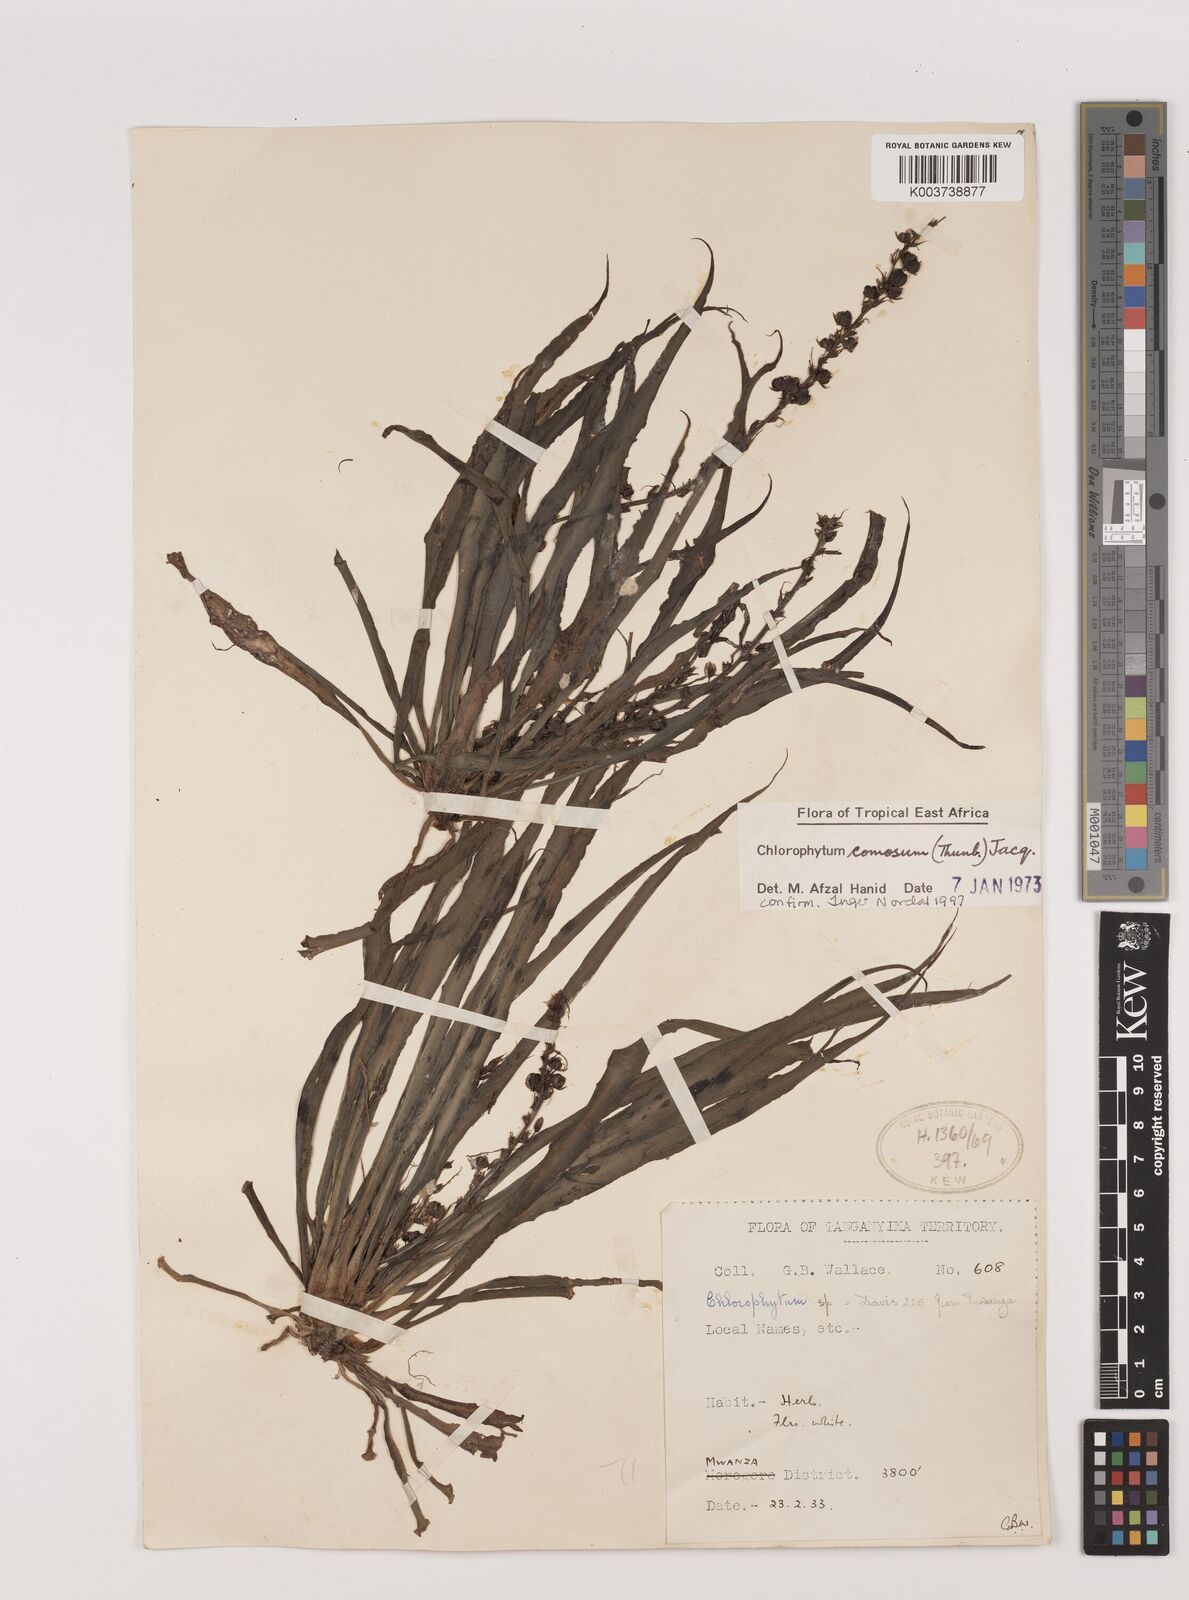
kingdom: Plantae
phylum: Tracheophyta
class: Liliopsida
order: Asparagales
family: Asparagaceae
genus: Chlorophytum
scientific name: Chlorophytum comosum
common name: Spider plant
